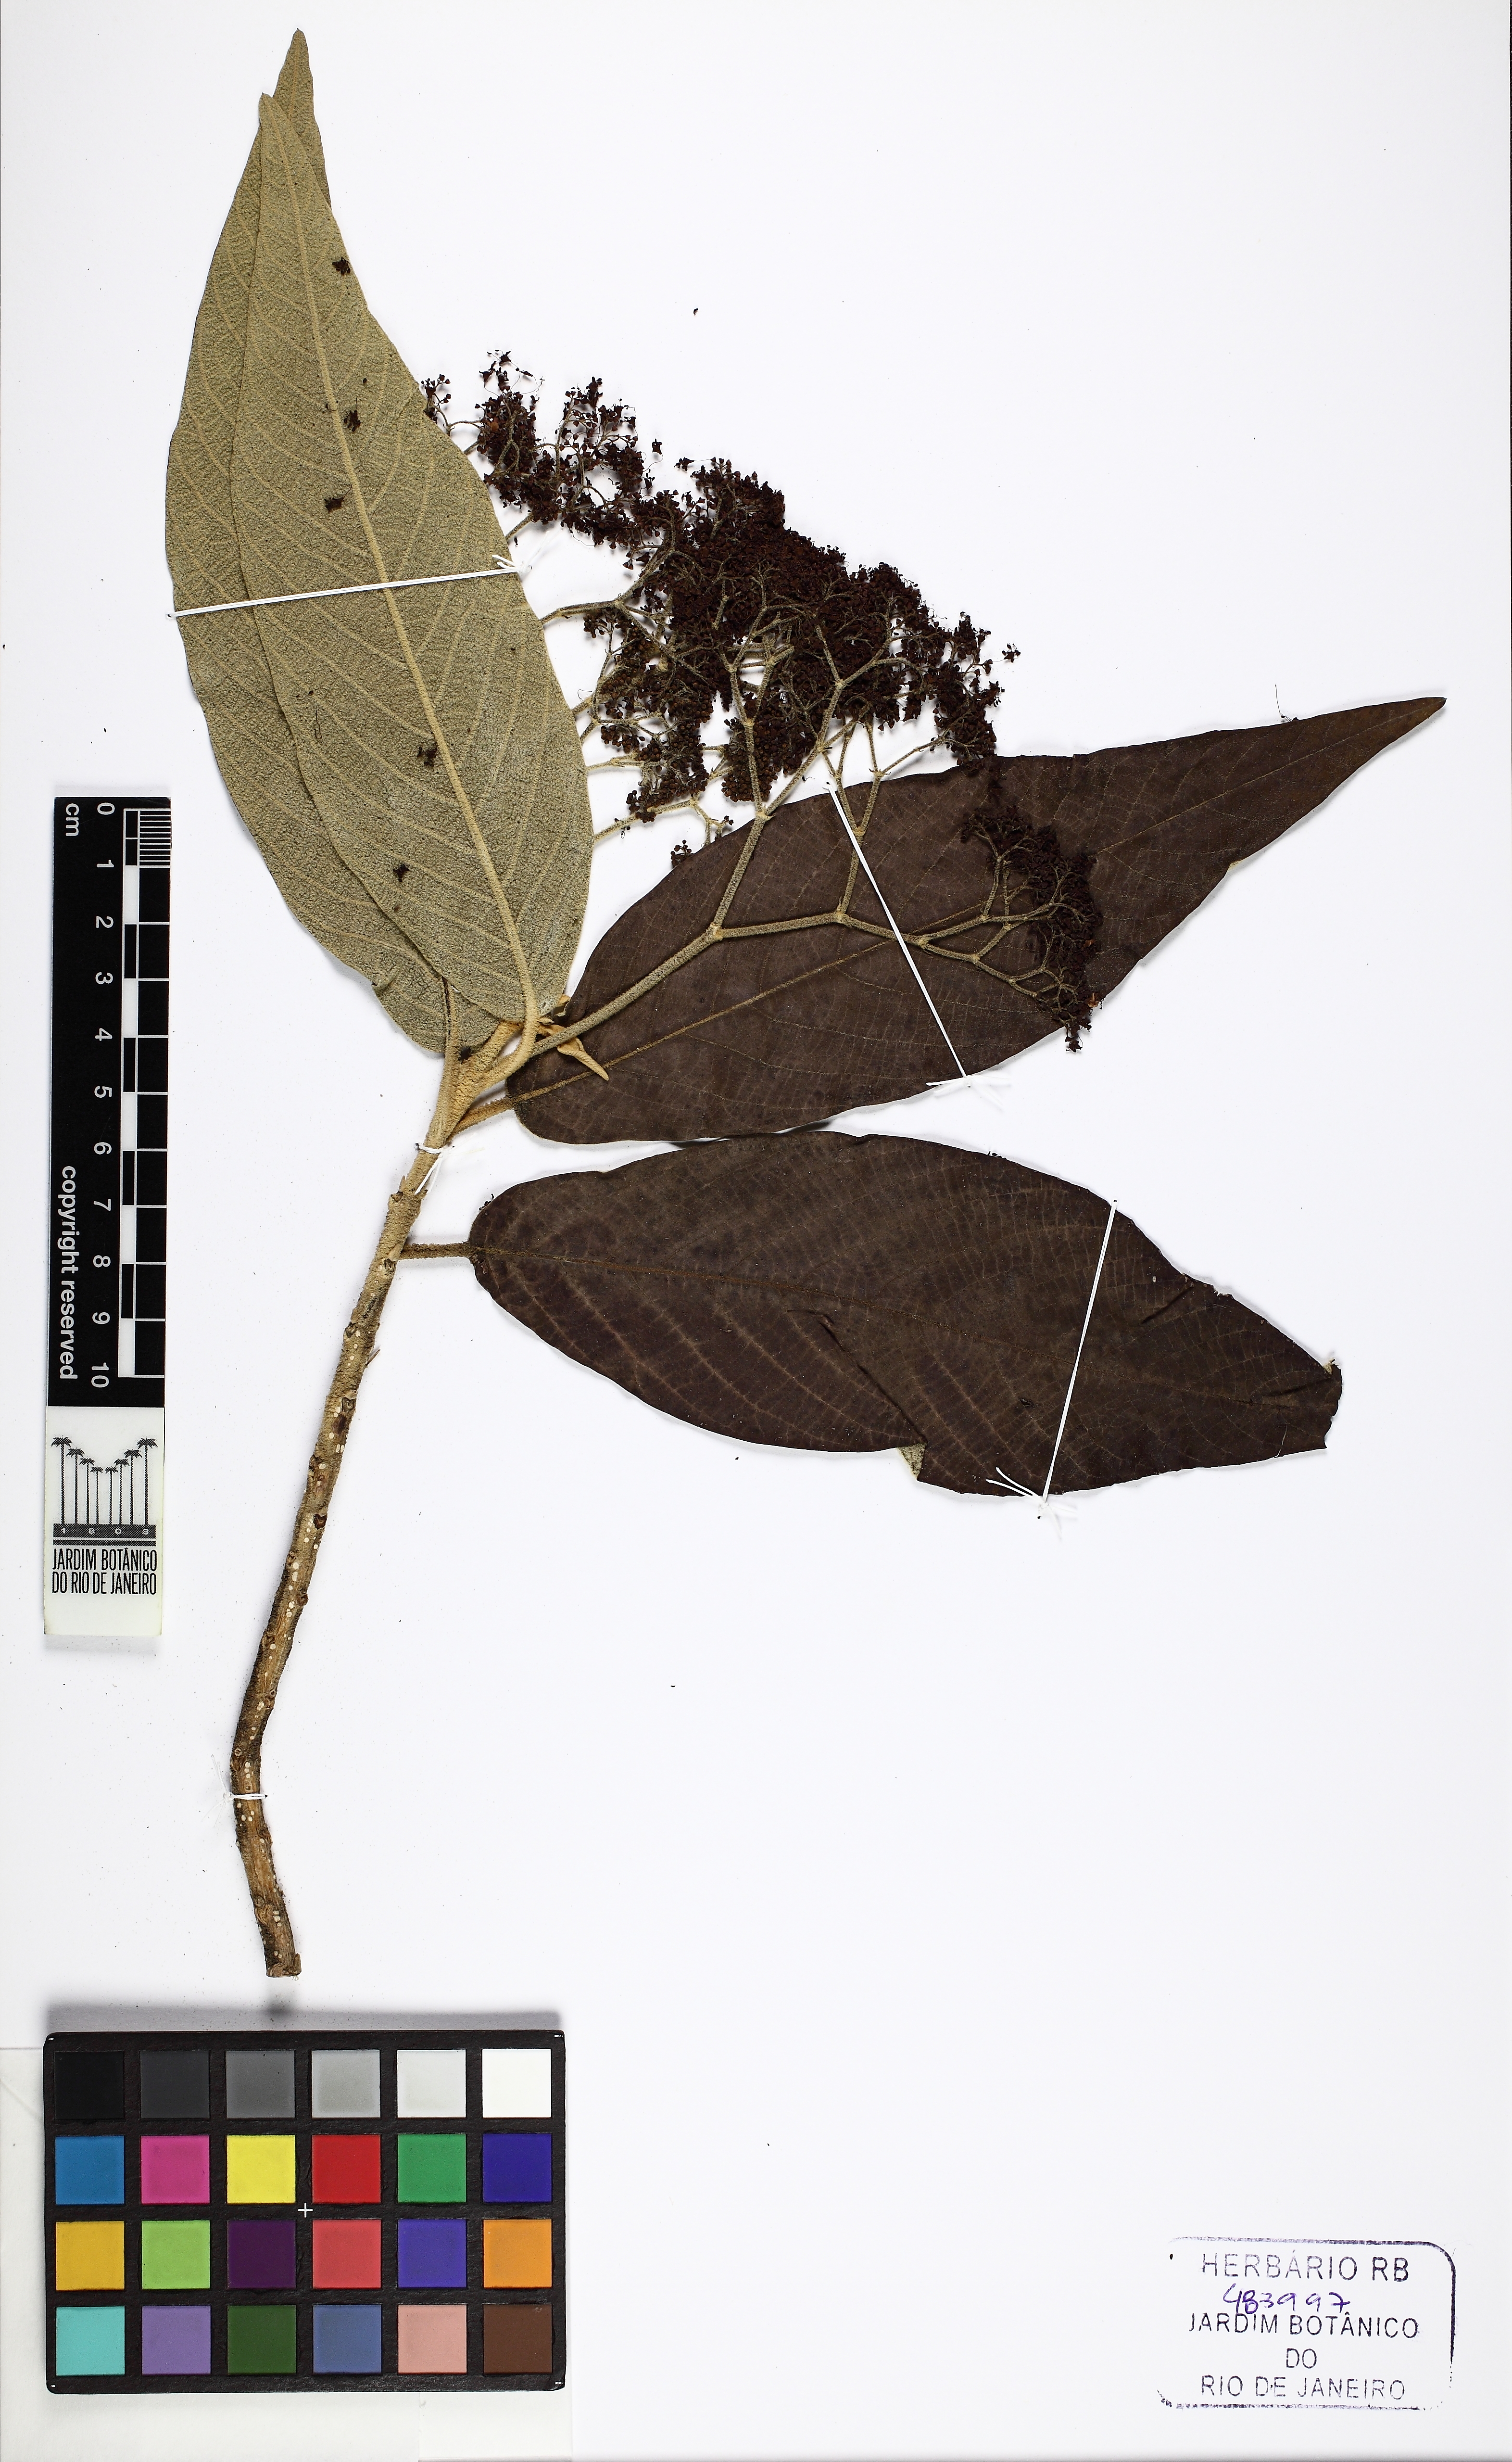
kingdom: Plantae
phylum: Tracheophyta
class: Magnoliopsida
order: Lamiales
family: Lamiaceae
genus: Callicarpa
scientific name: Callicarpa reevesii
